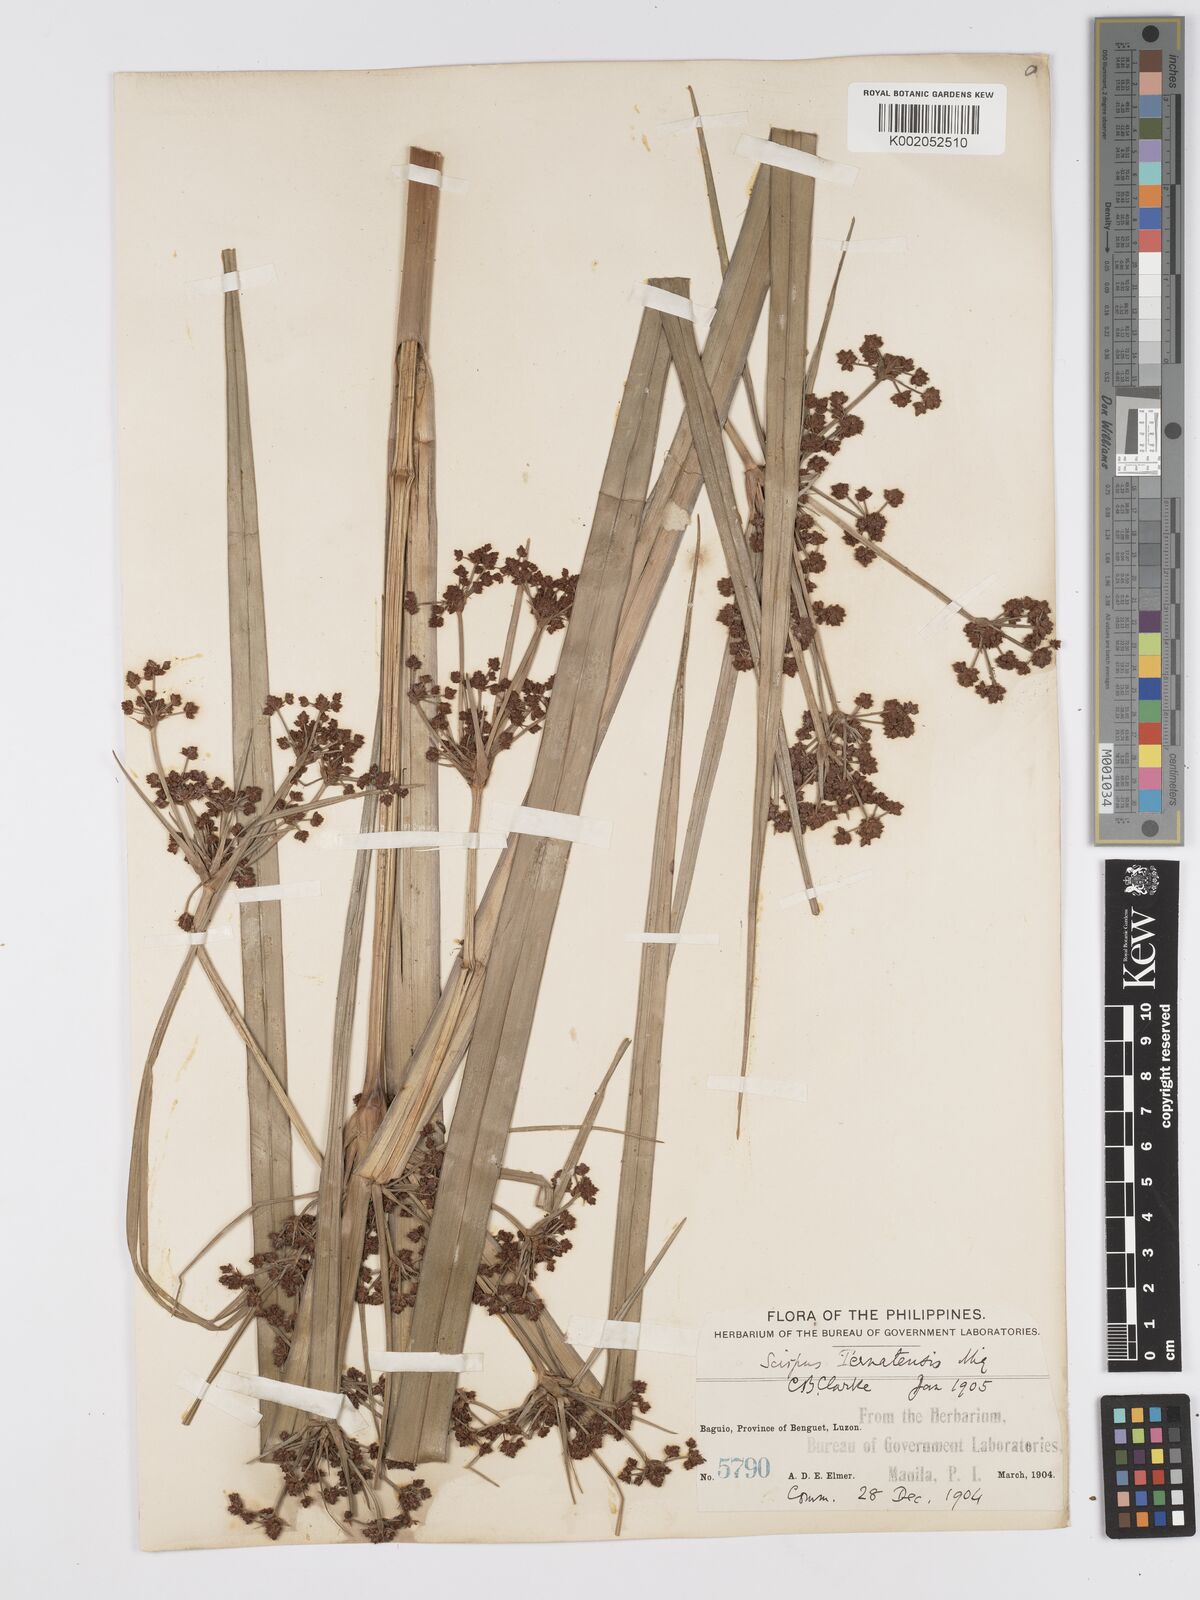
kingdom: Plantae
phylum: Tracheophyta
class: Liliopsida
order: Poales
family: Cyperaceae
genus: Scirpus
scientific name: Scirpus ternatanus
